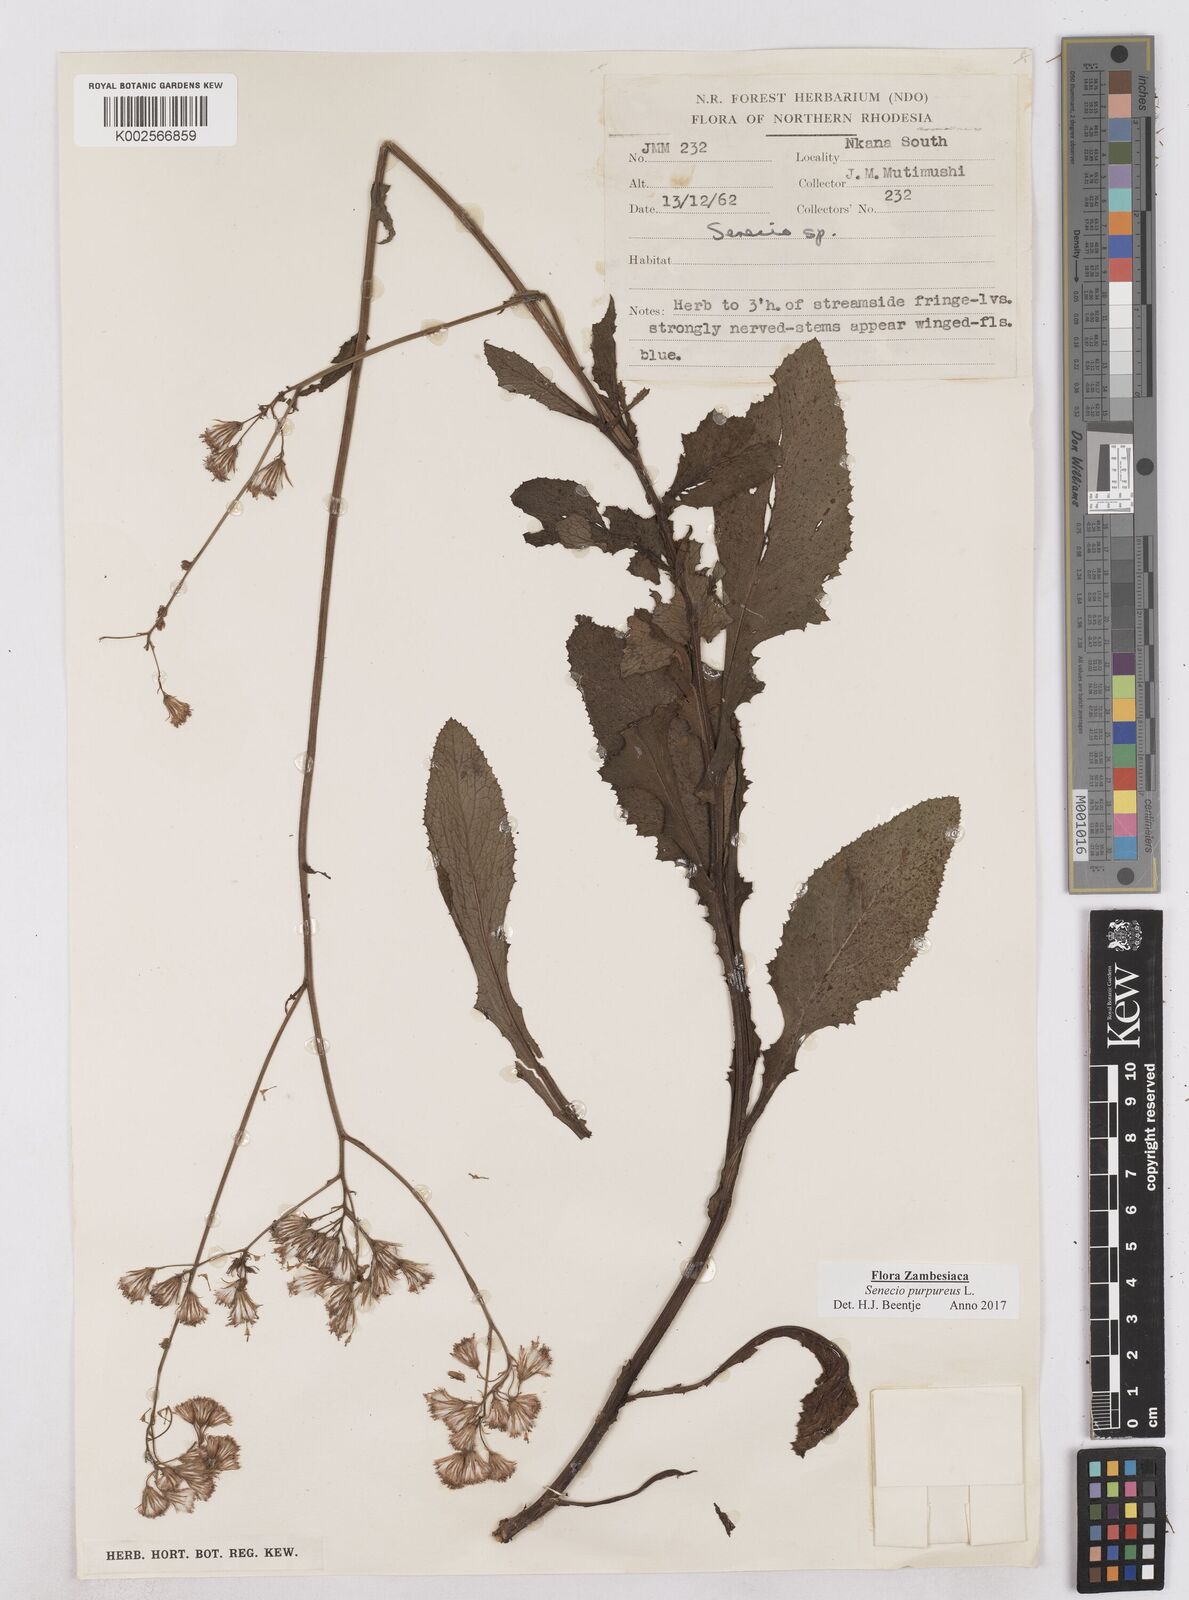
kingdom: Plantae
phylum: Tracheophyta
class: Magnoliopsida
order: Asterales
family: Asteraceae
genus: Senecio
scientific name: Senecio purpureus
